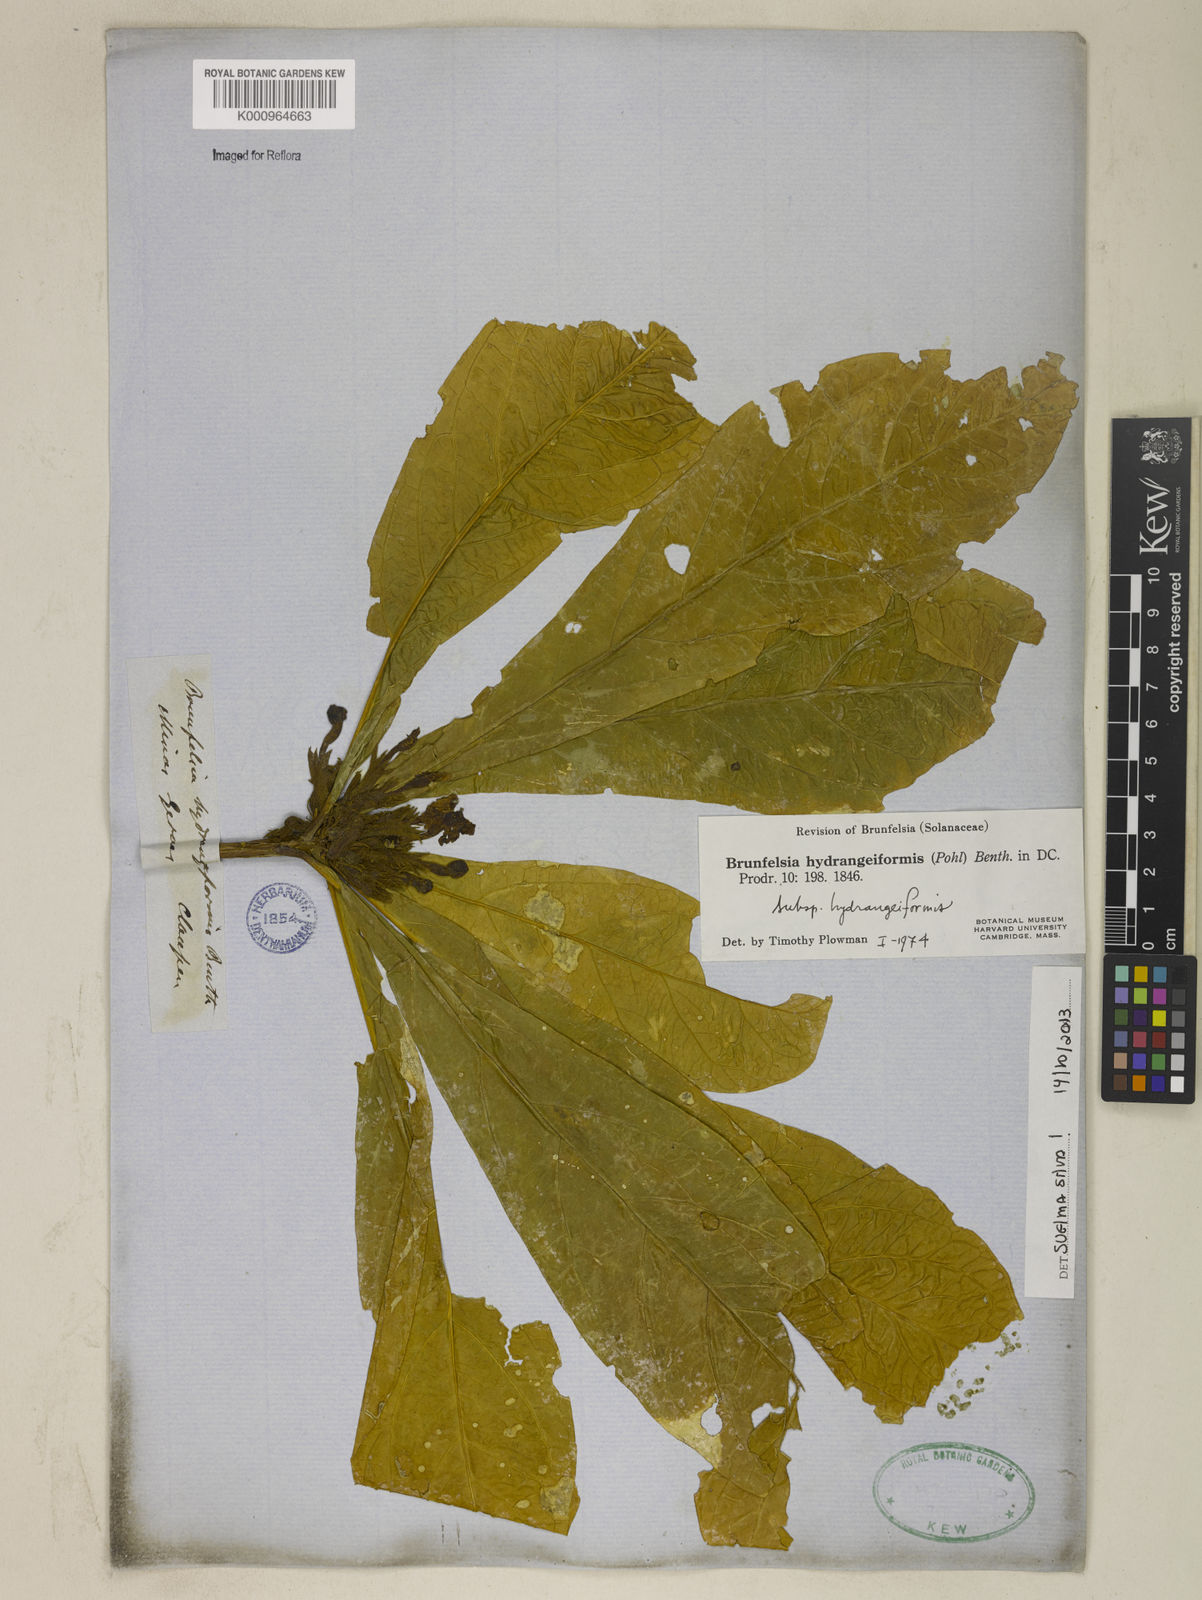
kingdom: Plantae
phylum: Tracheophyta
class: Magnoliopsida
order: Solanales
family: Solanaceae
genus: Brunfelsia
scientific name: Brunfelsia hydrangeiformis
